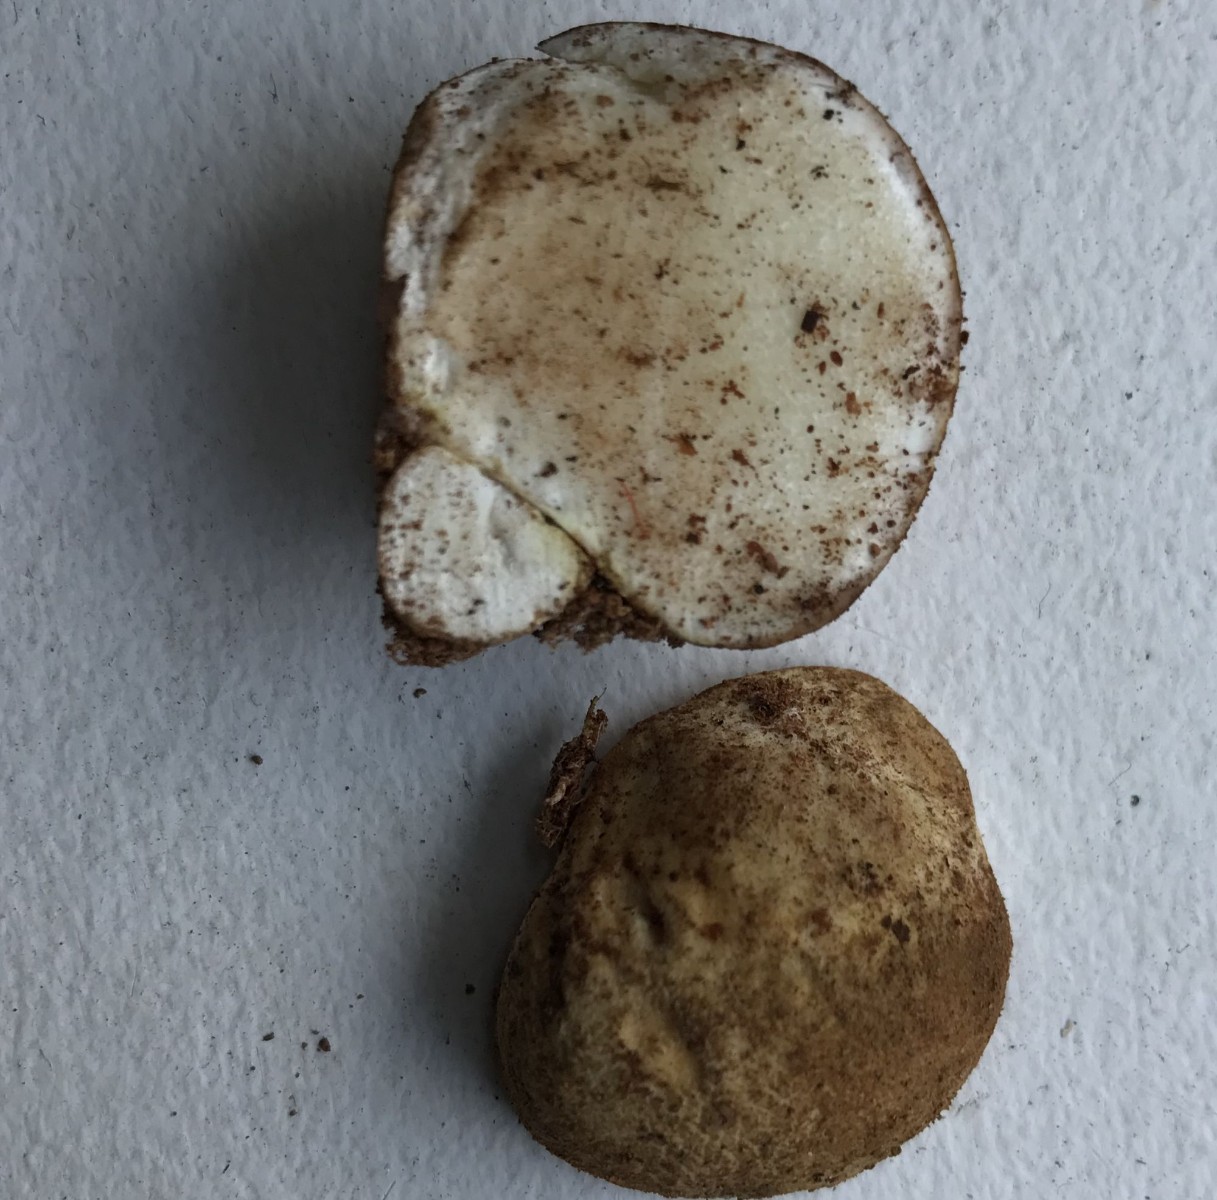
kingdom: Fungi
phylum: Basidiomycota
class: Agaricomycetes
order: Boletales
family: Sclerodermataceae
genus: Scleroderma
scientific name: Scleroderma
